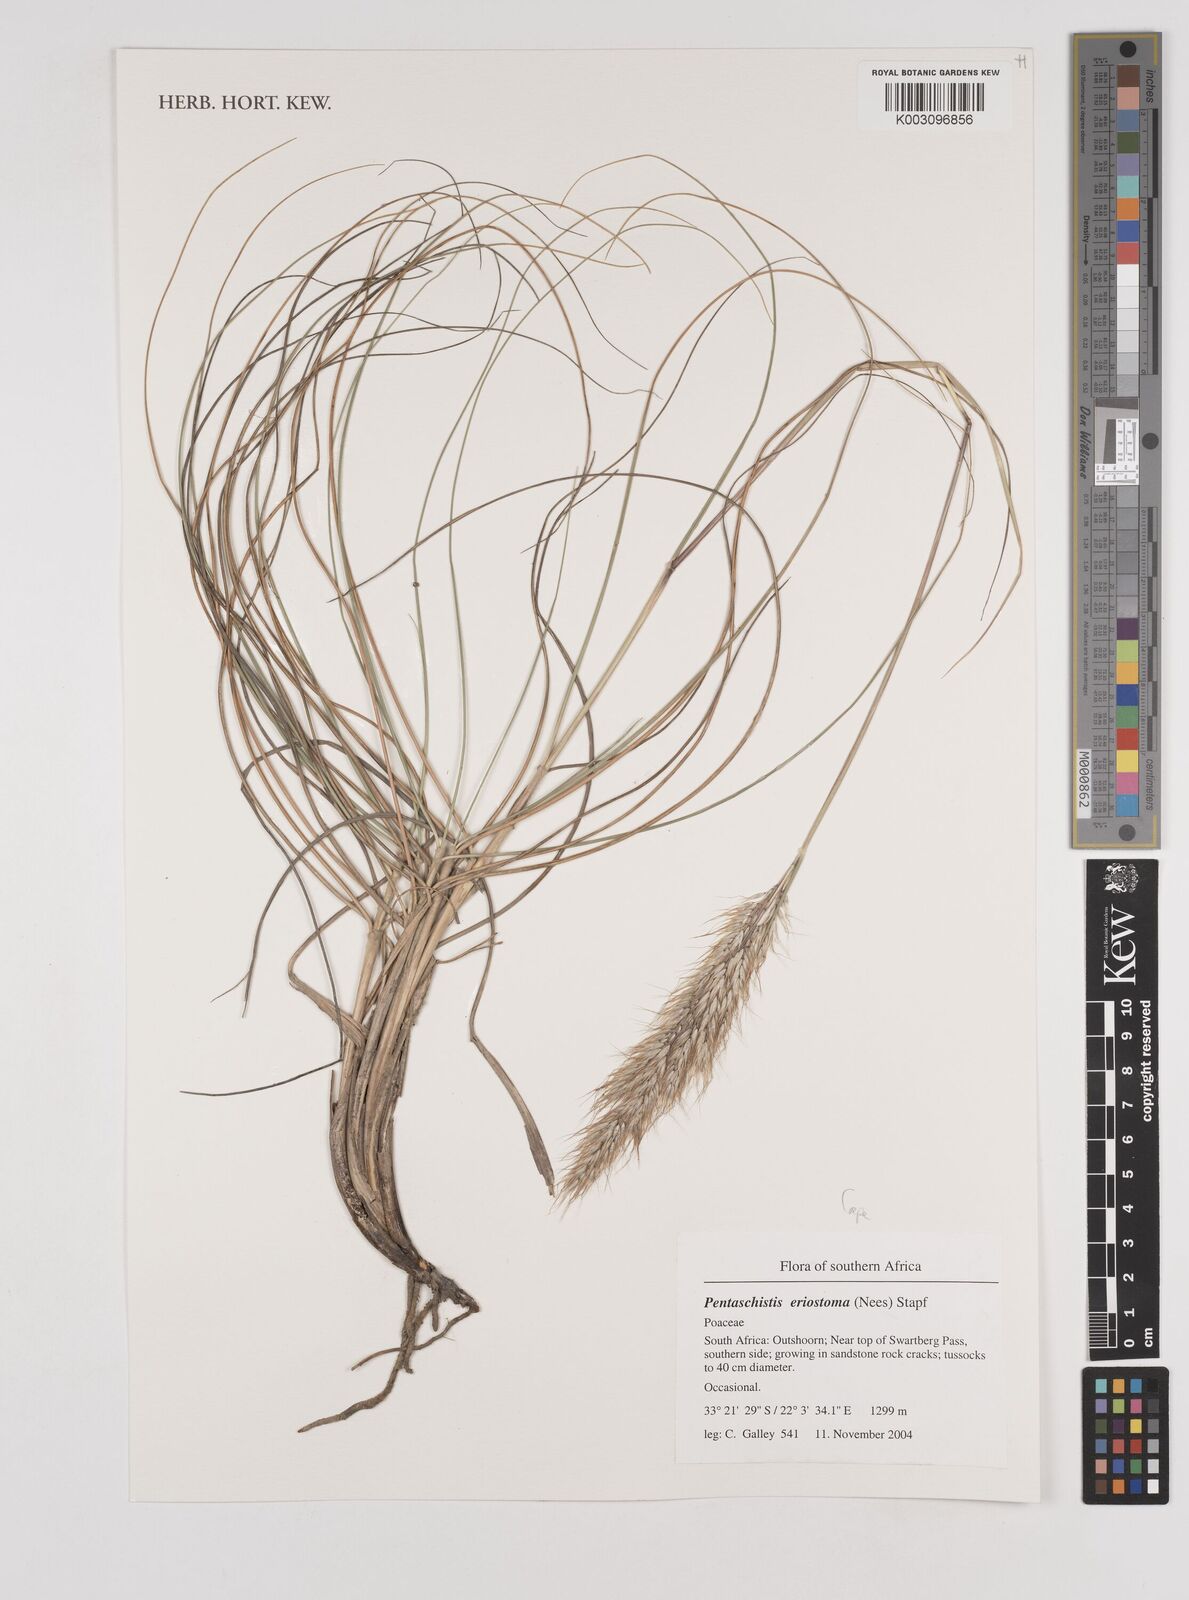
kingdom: Plantae
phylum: Tracheophyta
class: Liliopsida
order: Poales
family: Poaceae
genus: Pentameris
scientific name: Pentameris eriostoma
